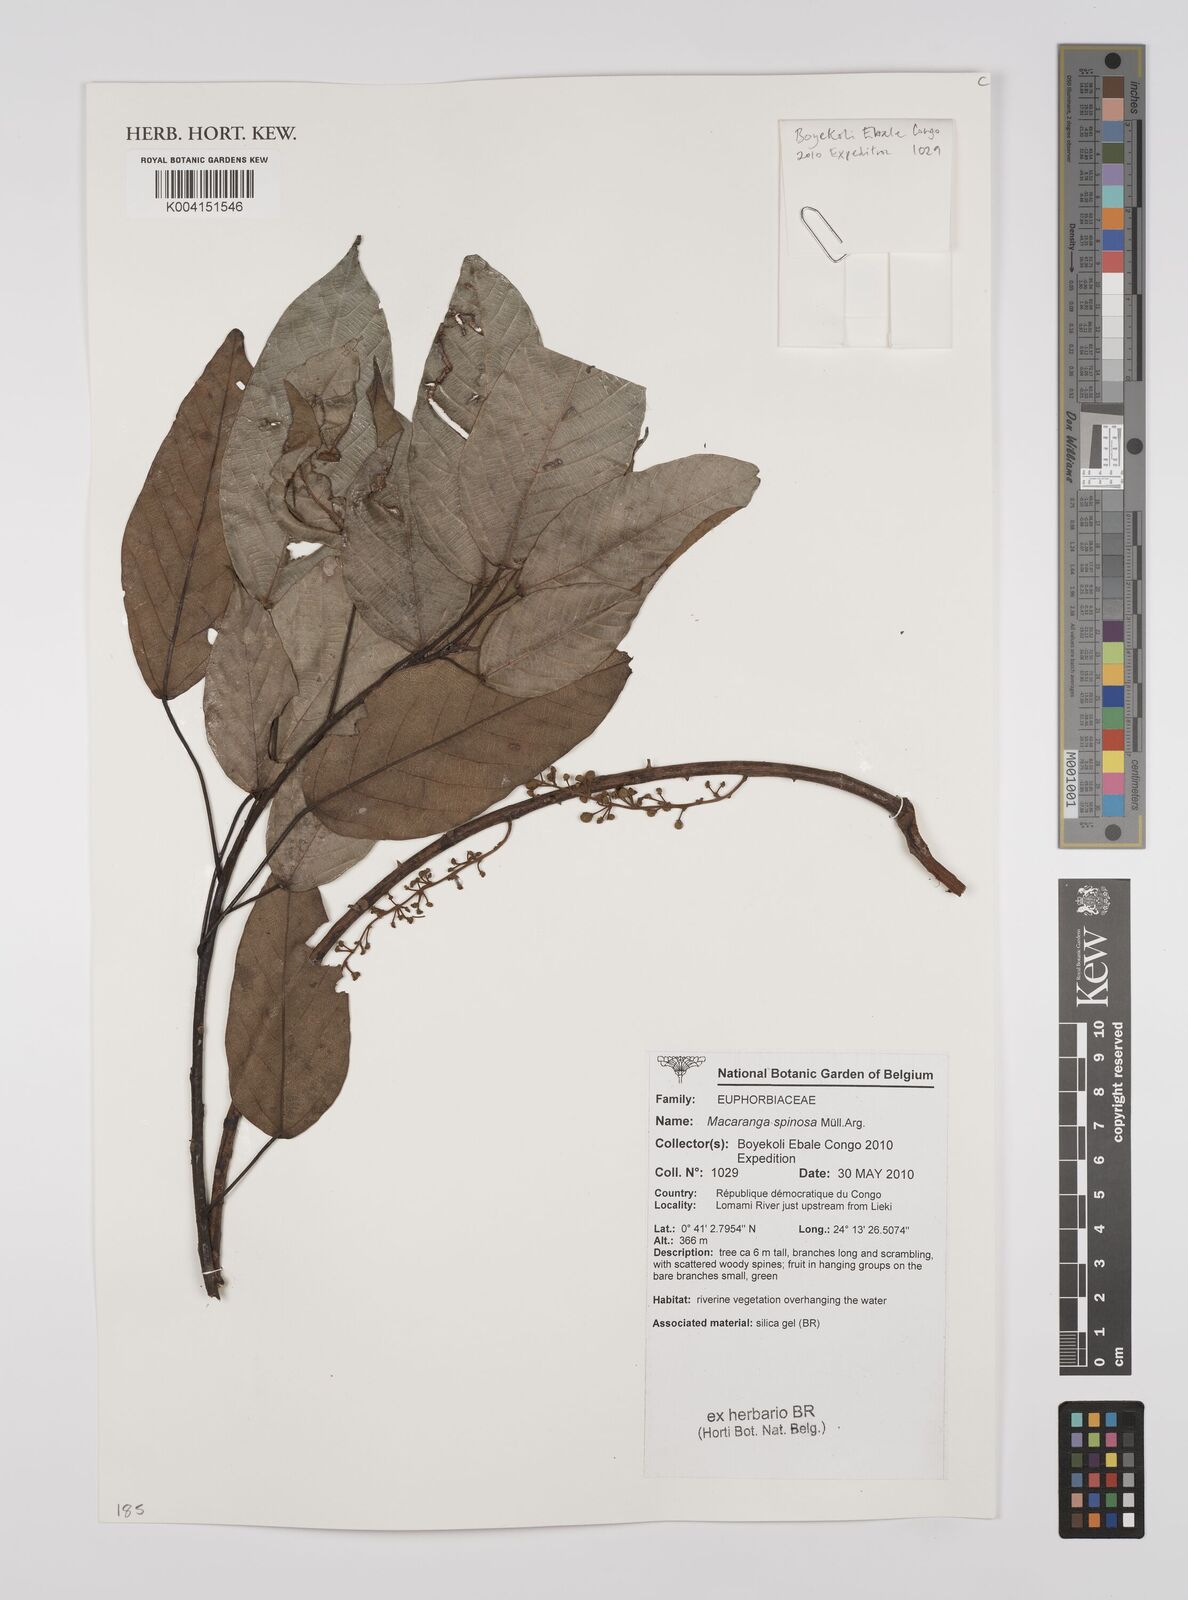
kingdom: Plantae
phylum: Tracheophyta
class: Magnoliopsida
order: Malpighiales
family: Euphorbiaceae
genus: Macaranga
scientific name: Macaranga spinosa
